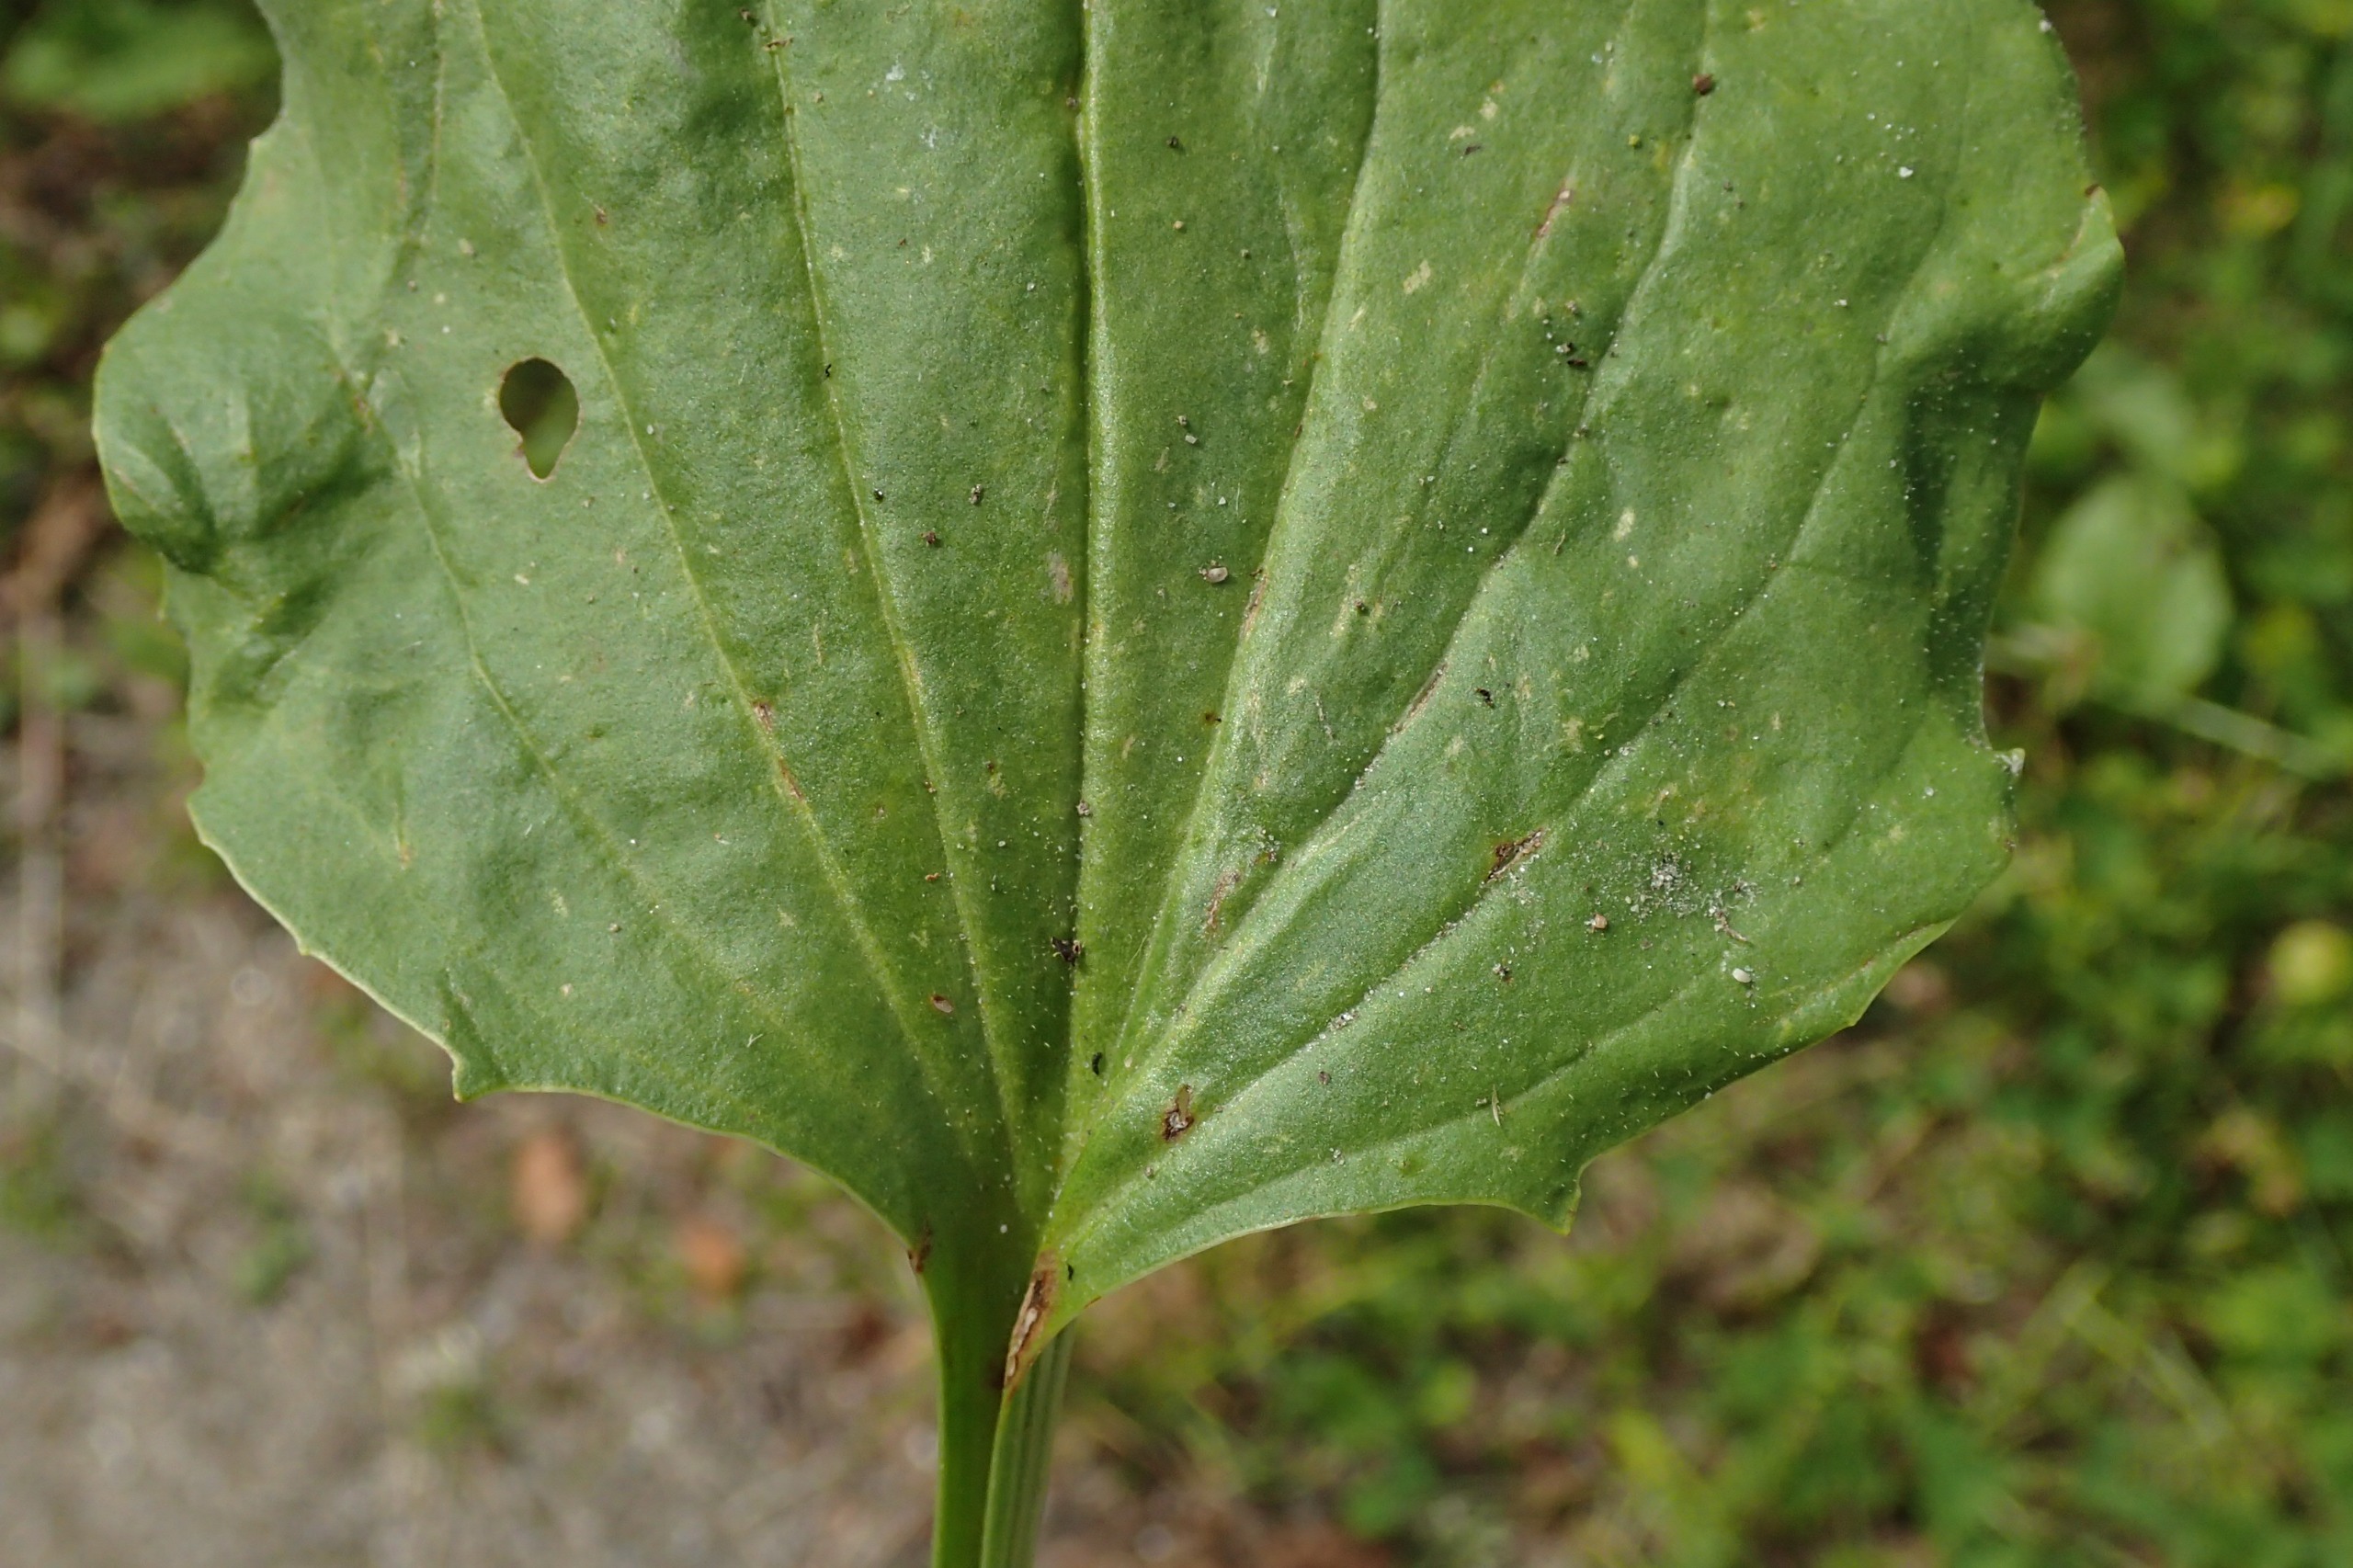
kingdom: Plantae
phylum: Tracheophyta
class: Magnoliopsida
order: Lamiales
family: Plantaginaceae
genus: Plantago
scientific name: Plantago uliginosa
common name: Ager-vejbred
